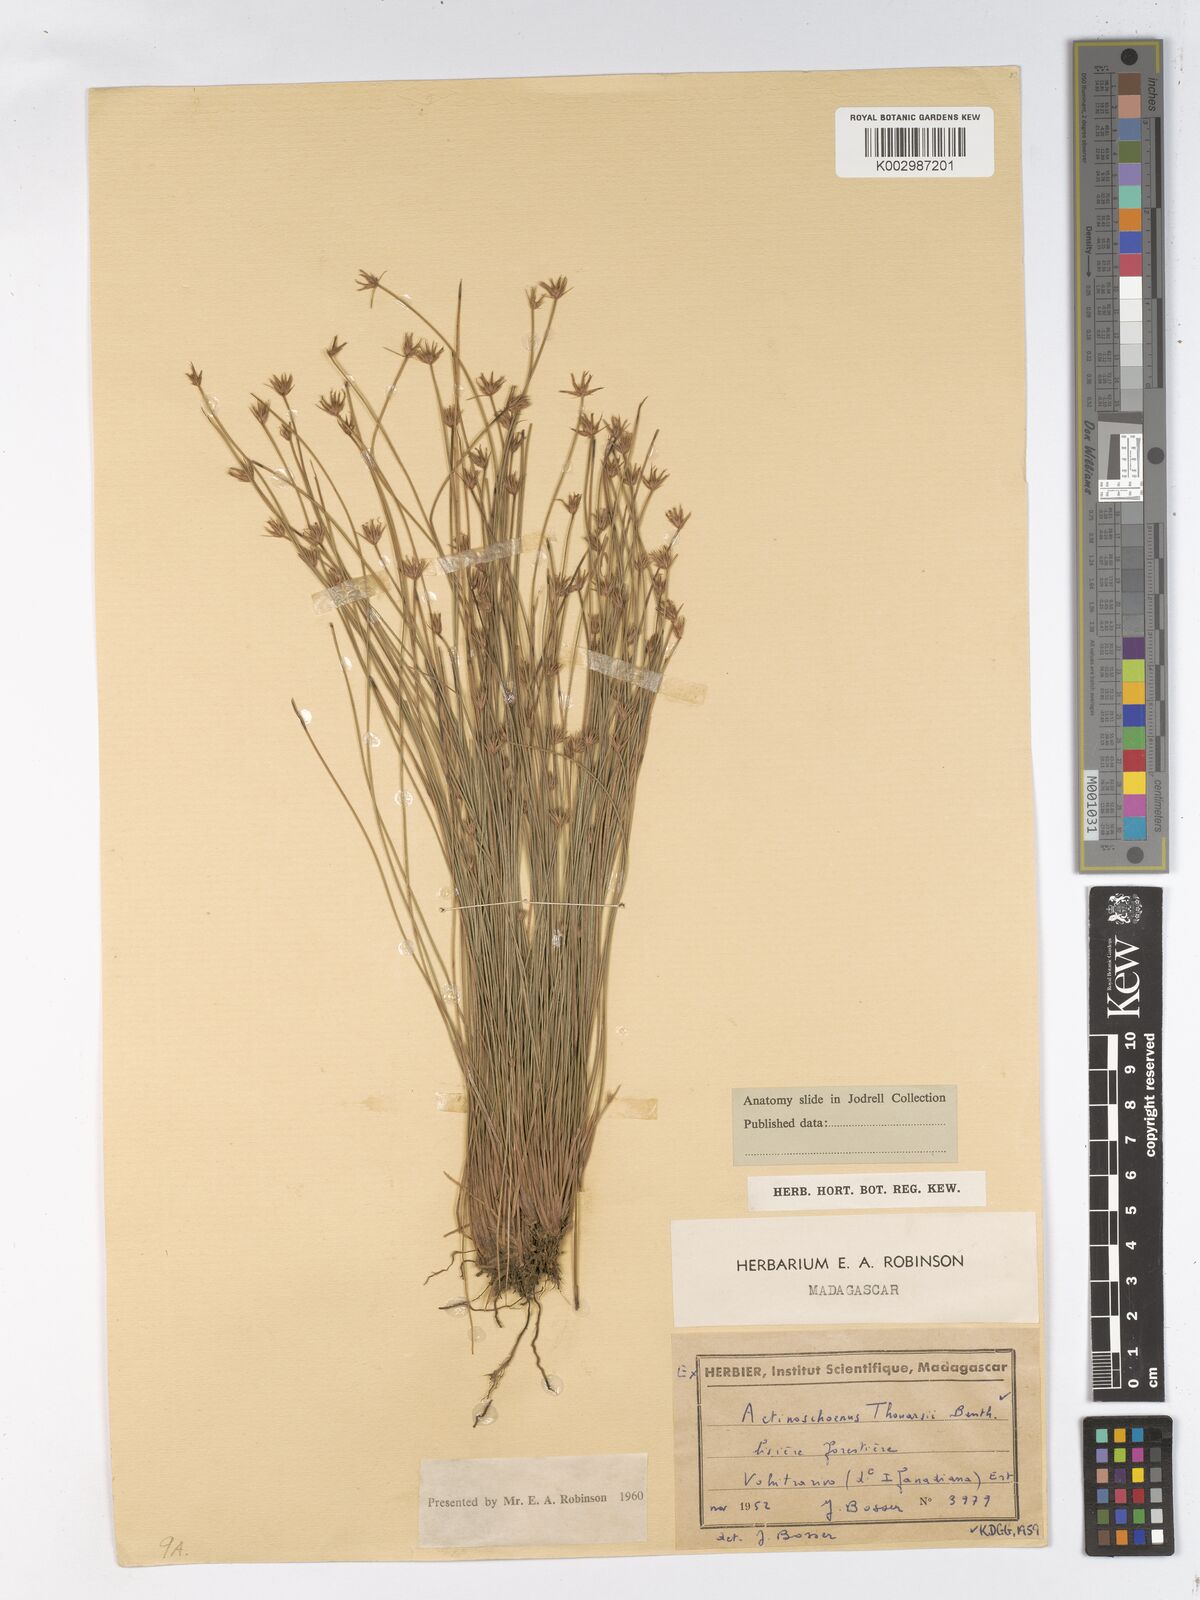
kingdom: Plantae
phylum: Tracheophyta
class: Liliopsida
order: Poales
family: Cyperaceae
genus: Actinoschoenus
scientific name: Actinoschoenus aphyllus
